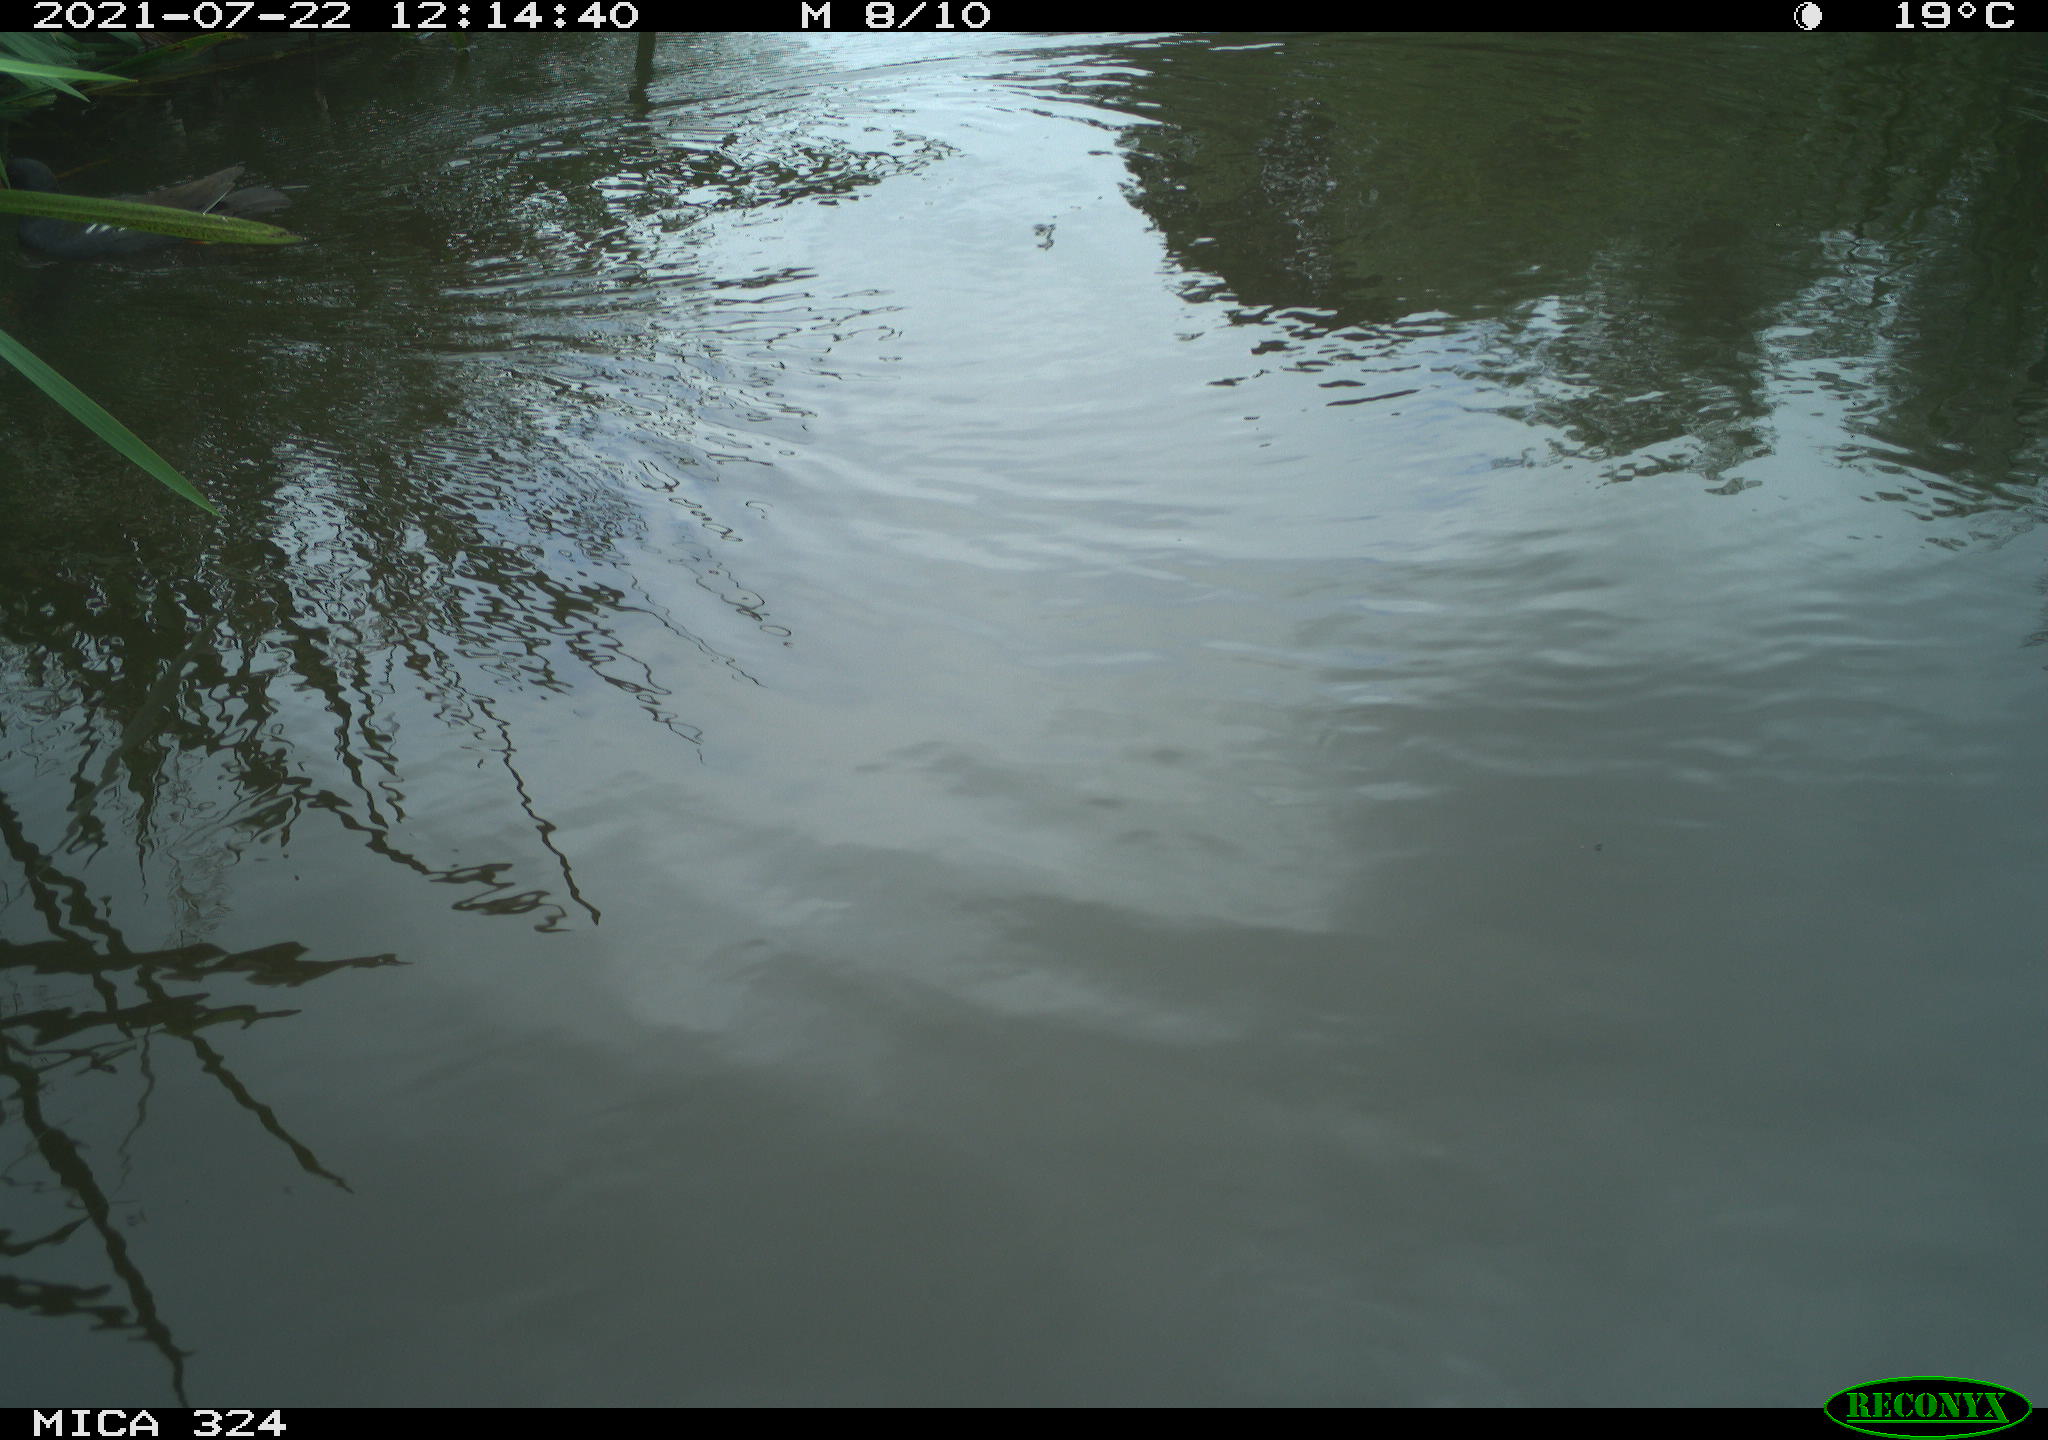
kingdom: Animalia
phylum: Chordata
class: Aves
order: Gruiformes
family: Rallidae
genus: Gallinula
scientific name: Gallinula chloropus
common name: Common moorhen
